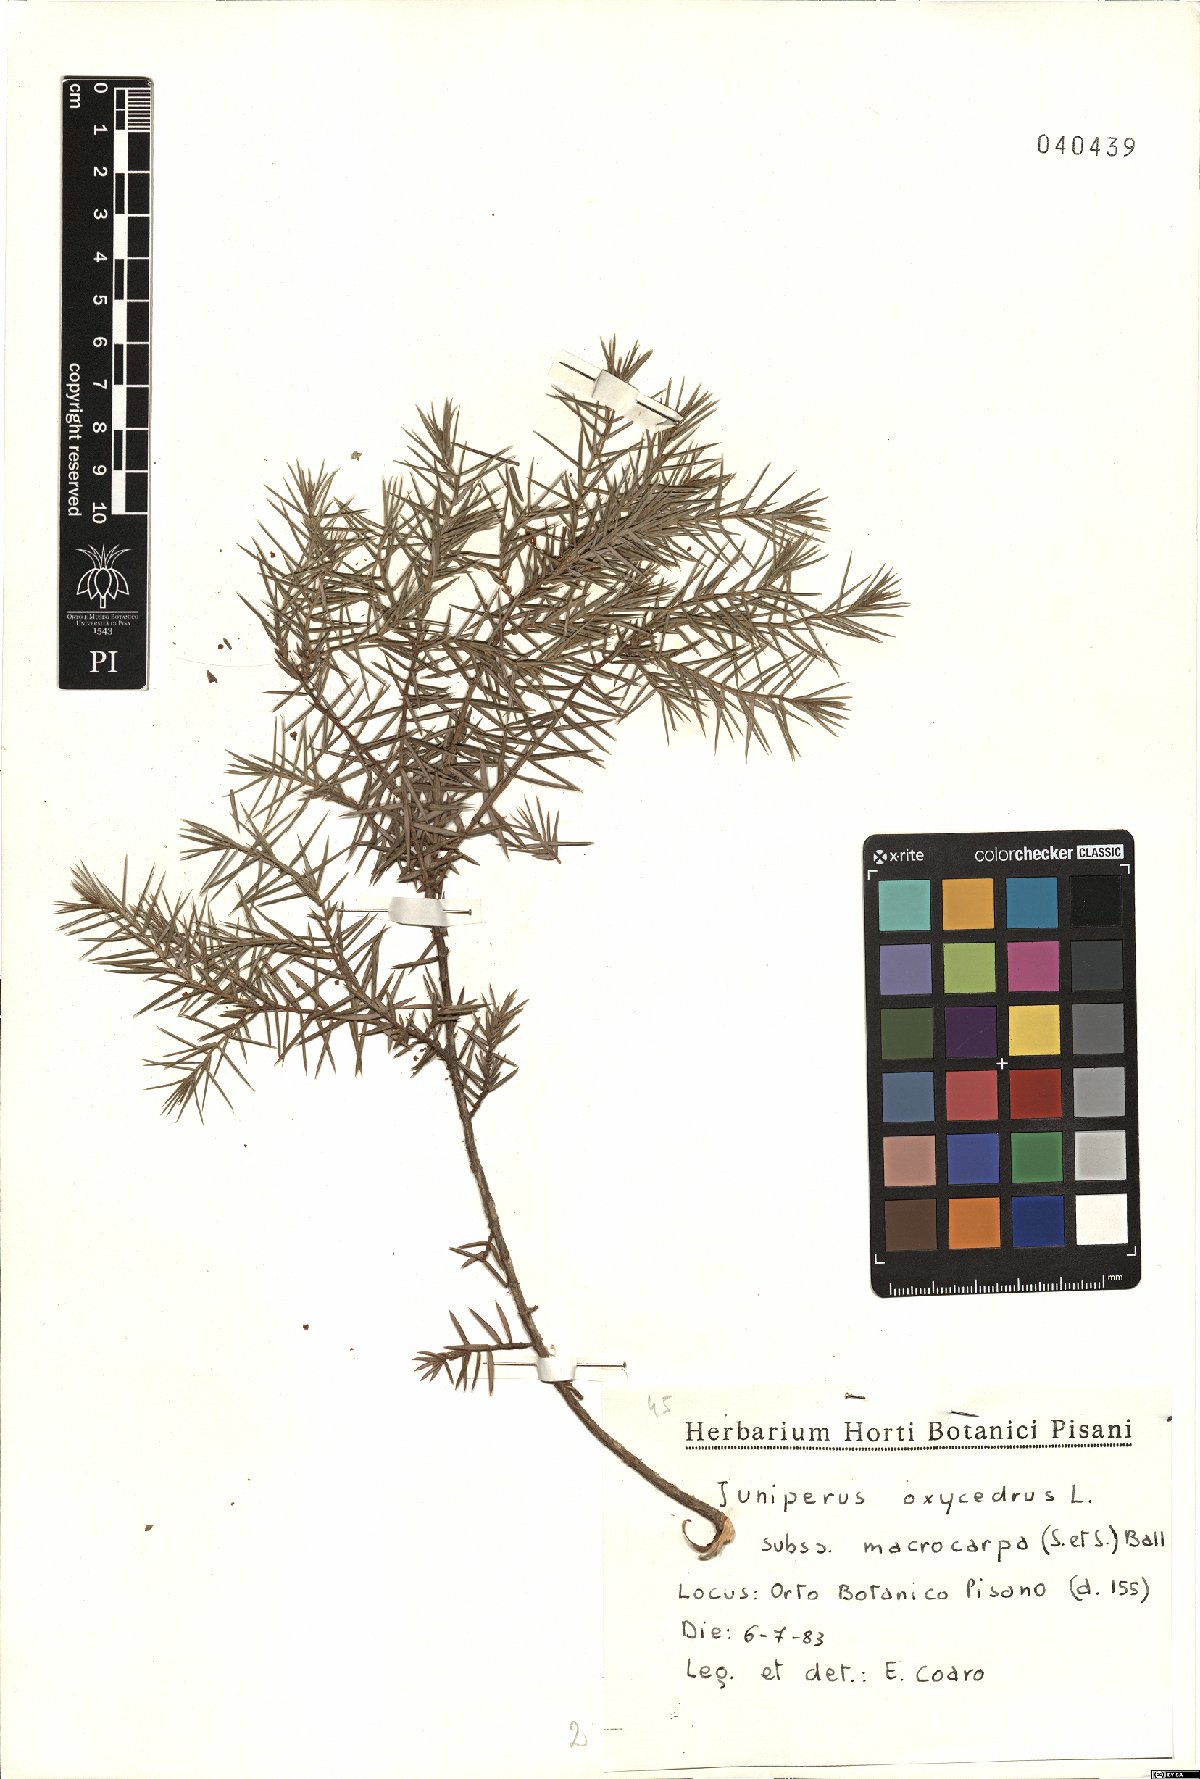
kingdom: Plantae
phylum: Tracheophyta
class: Pinopsida
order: Pinales
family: Cupressaceae
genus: Juniperus
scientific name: Juniperus oxycedrus
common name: Prickly juniper
